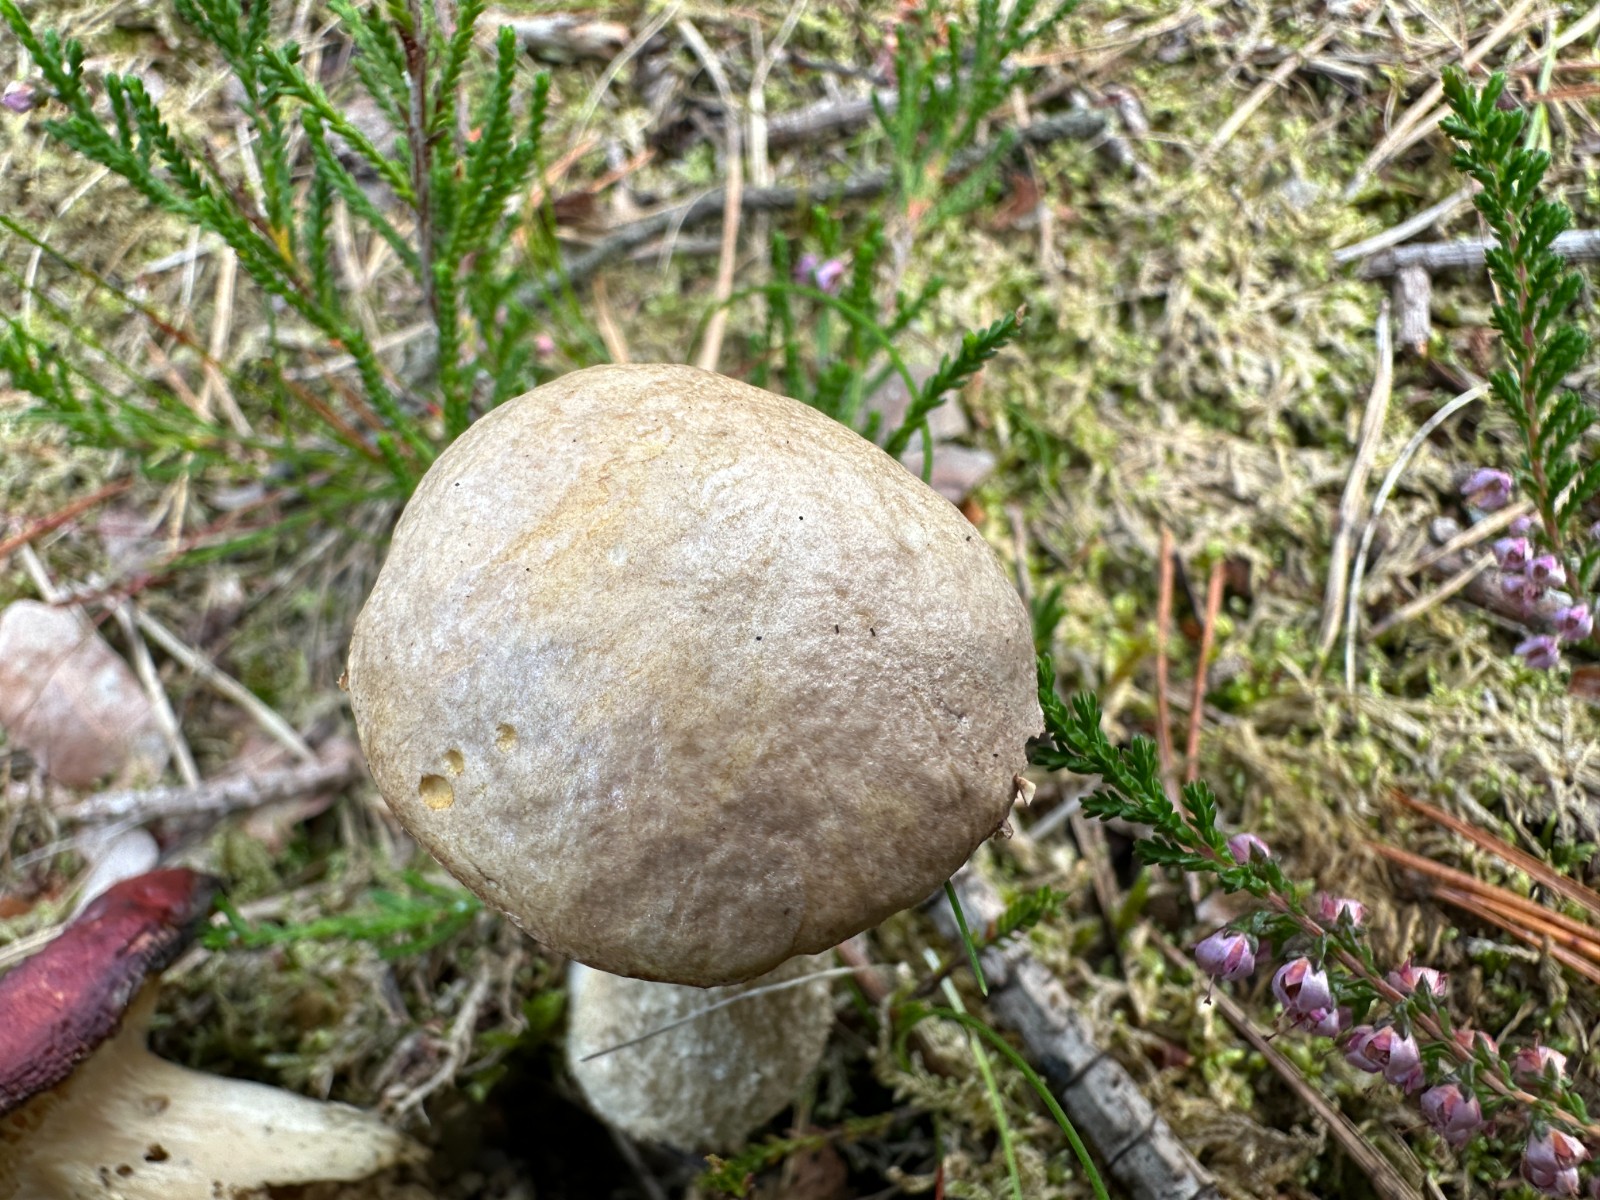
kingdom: Fungi
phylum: Basidiomycota
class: Agaricomycetes
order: Boletales
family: Boletaceae
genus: Leccinum
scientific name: Leccinum schistophilum
